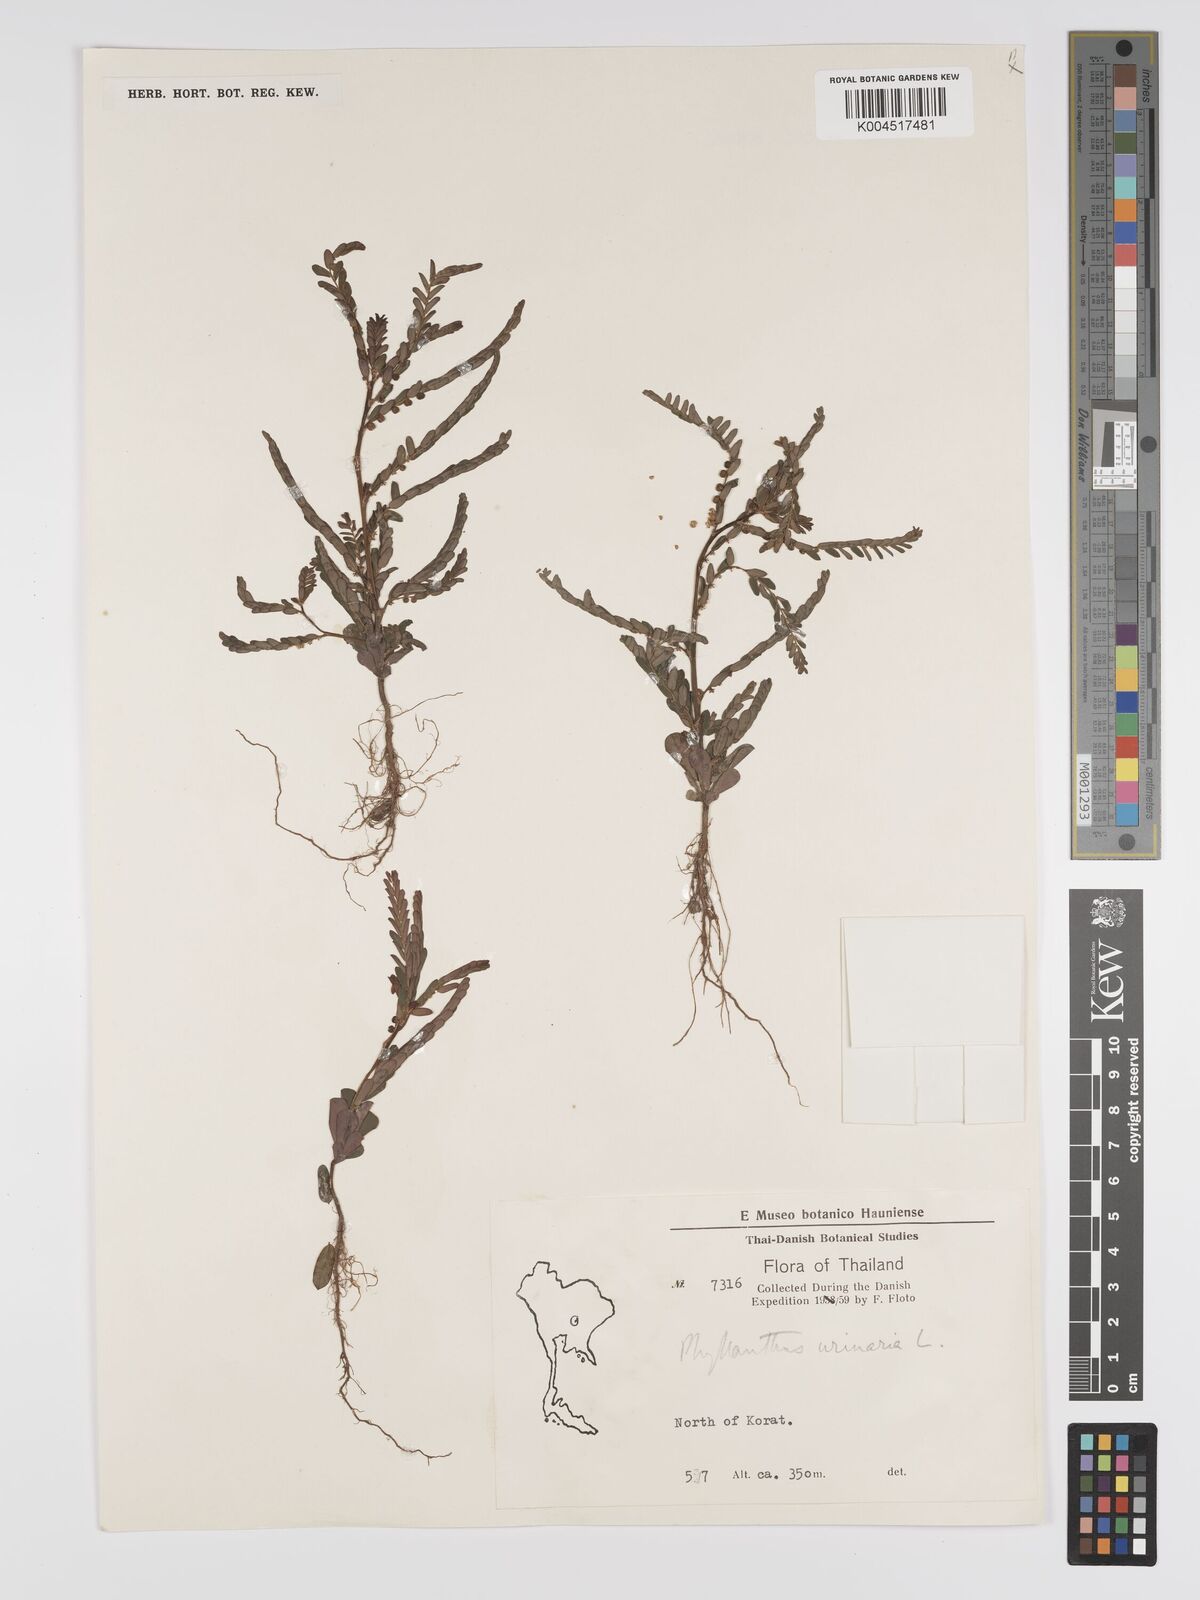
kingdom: Plantae
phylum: Tracheophyta
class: Magnoliopsida
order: Malpighiales
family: Phyllanthaceae
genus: Phyllanthus
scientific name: Phyllanthus urinaria
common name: Chamber bitter
